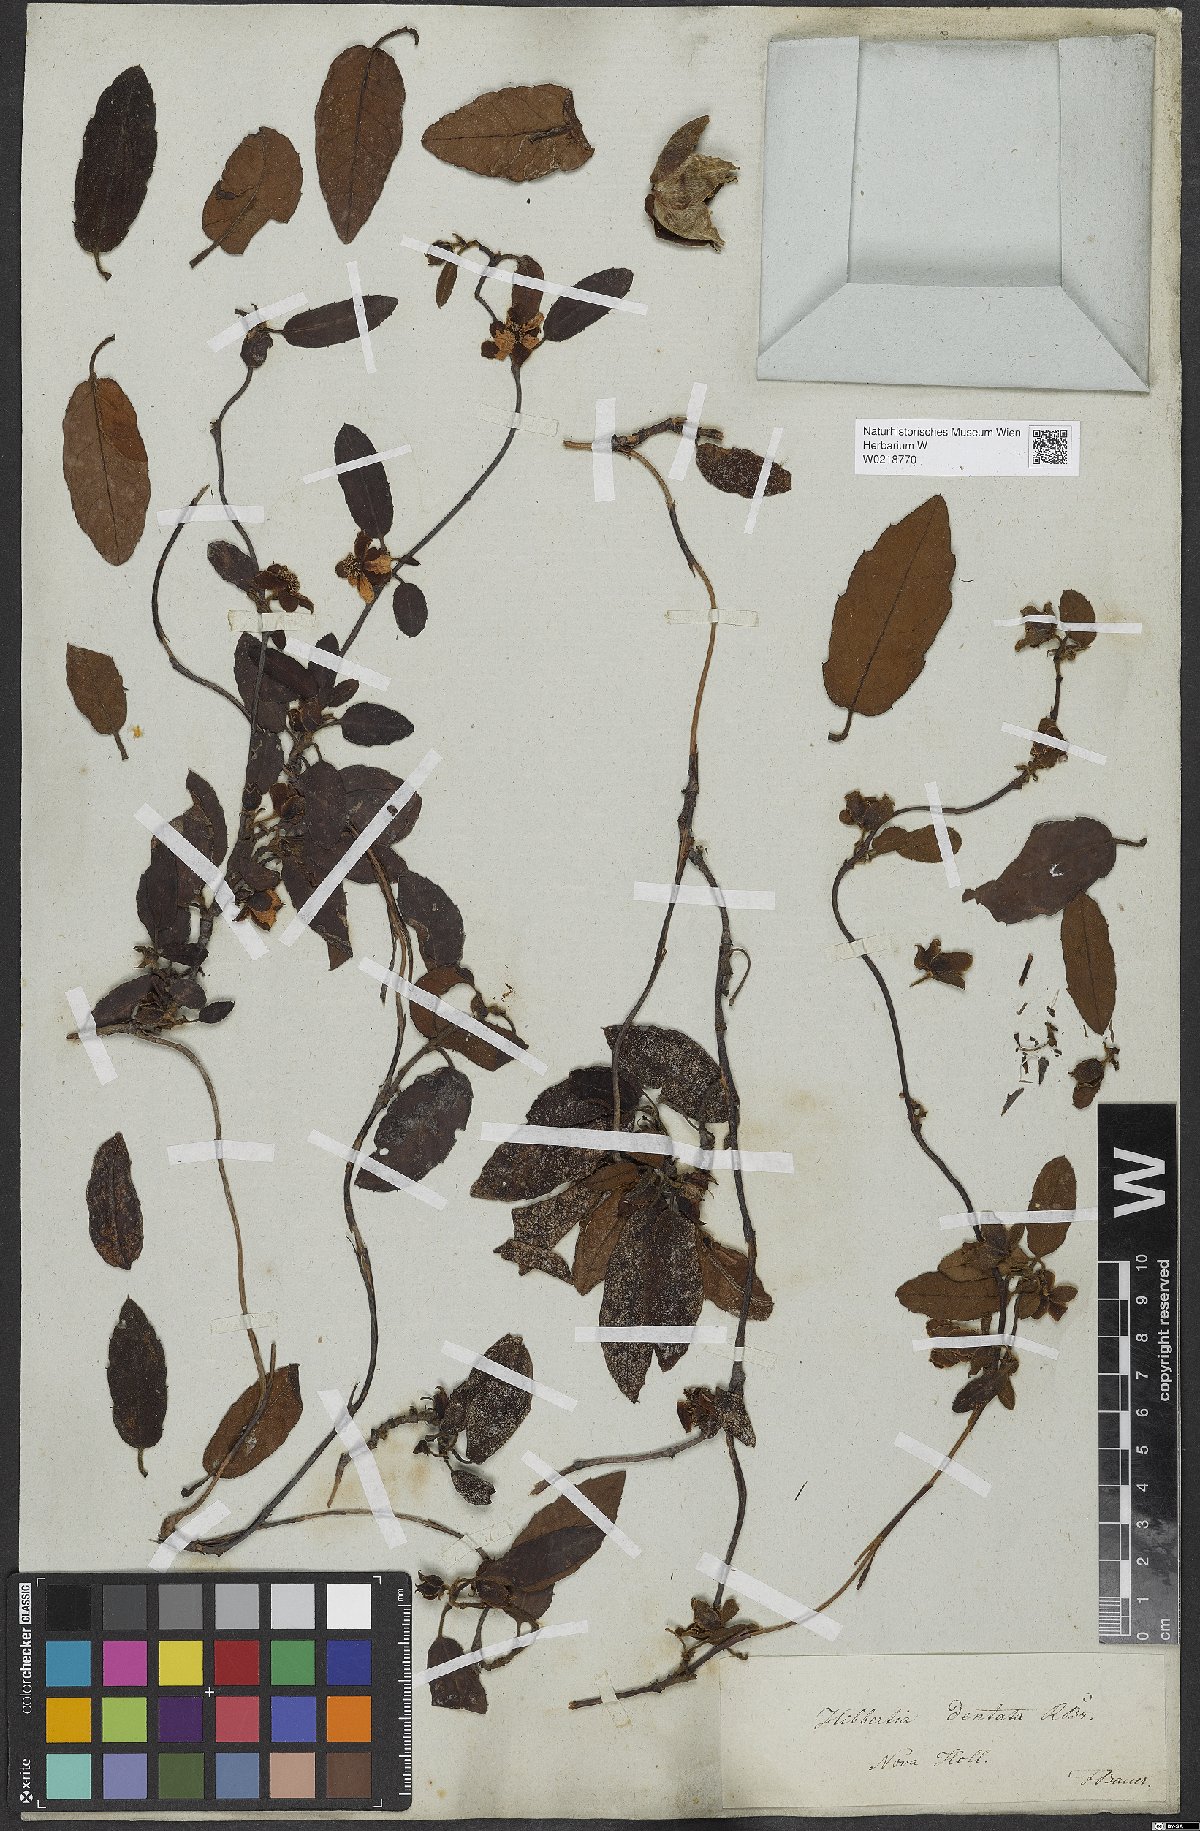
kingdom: Plantae
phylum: Tracheophyta
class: Magnoliopsida
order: Dilleniales
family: Dilleniaceae
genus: Hibbertia
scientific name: Hibbertia dentata
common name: Trailing guinea-flower
